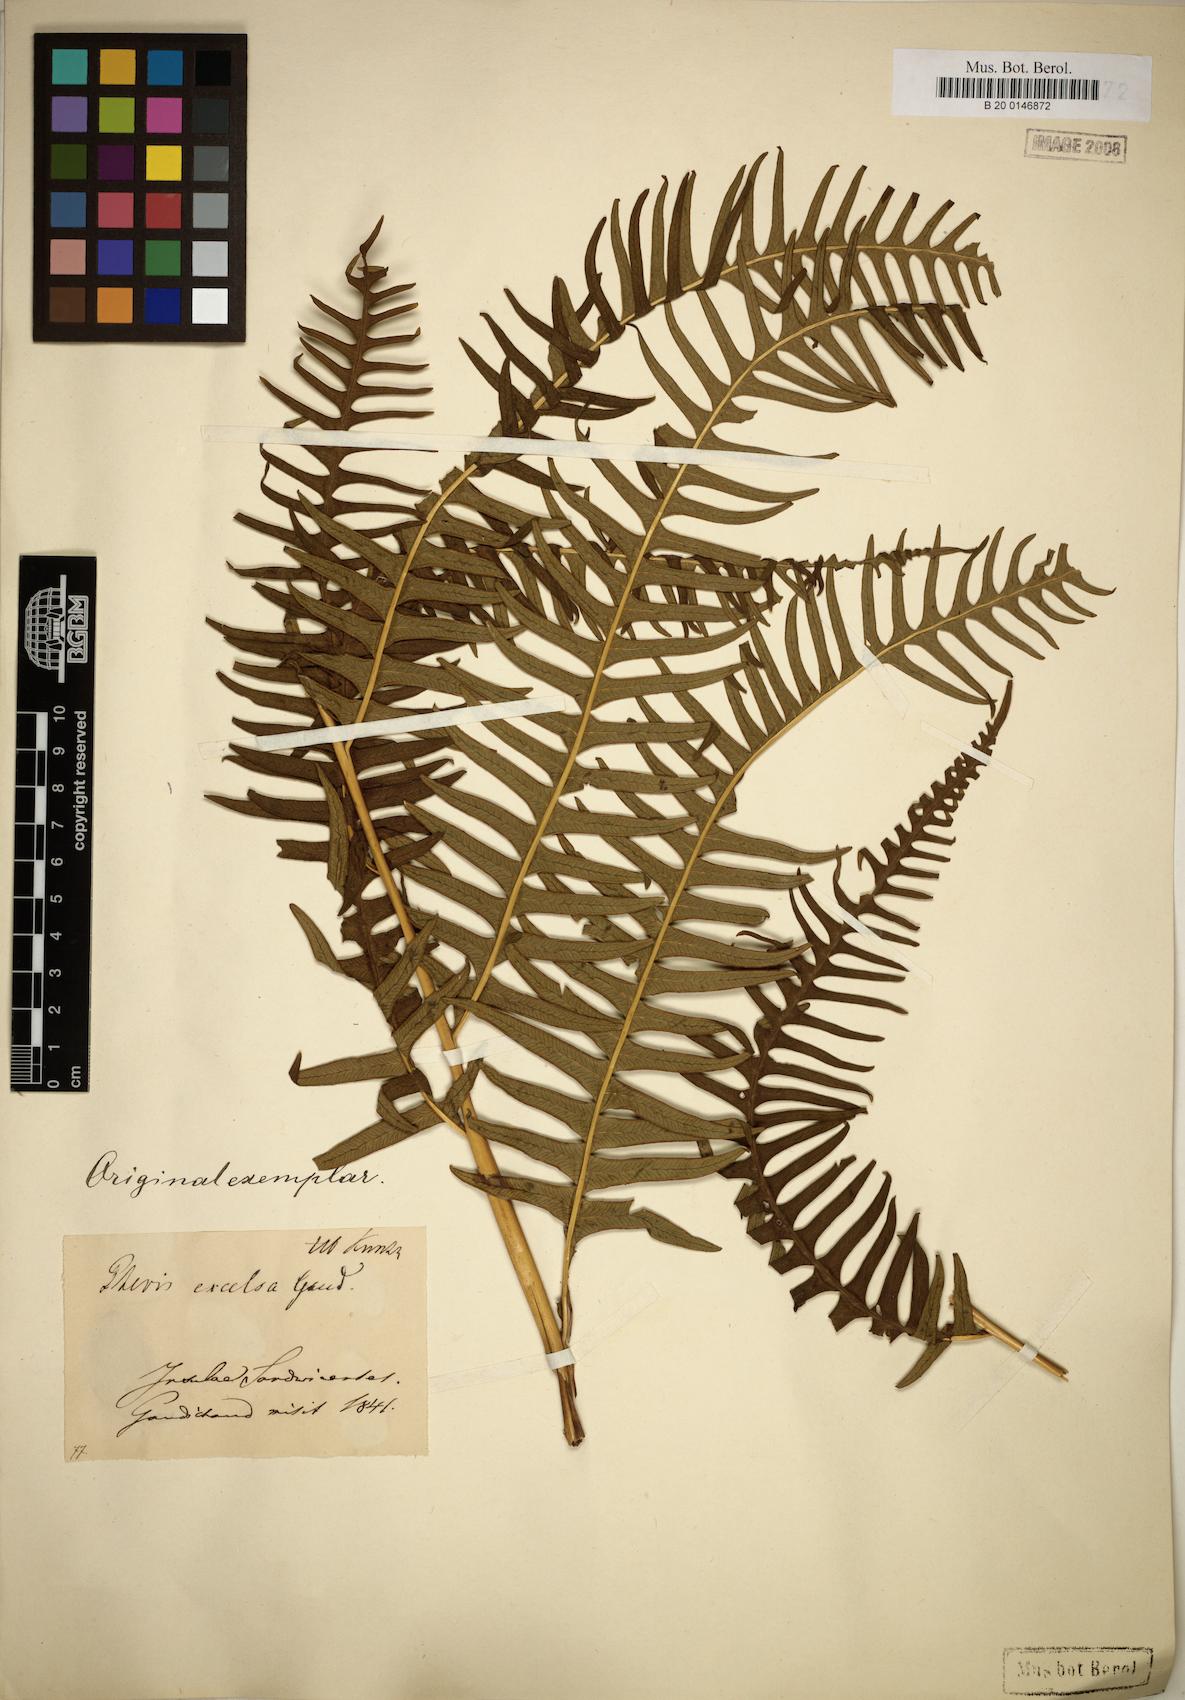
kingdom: Plantae
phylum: Tracheophyta
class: Polypodiopsida
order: Polypodiales
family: Pteridaceae
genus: Pteris
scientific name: Pteris terminalis
